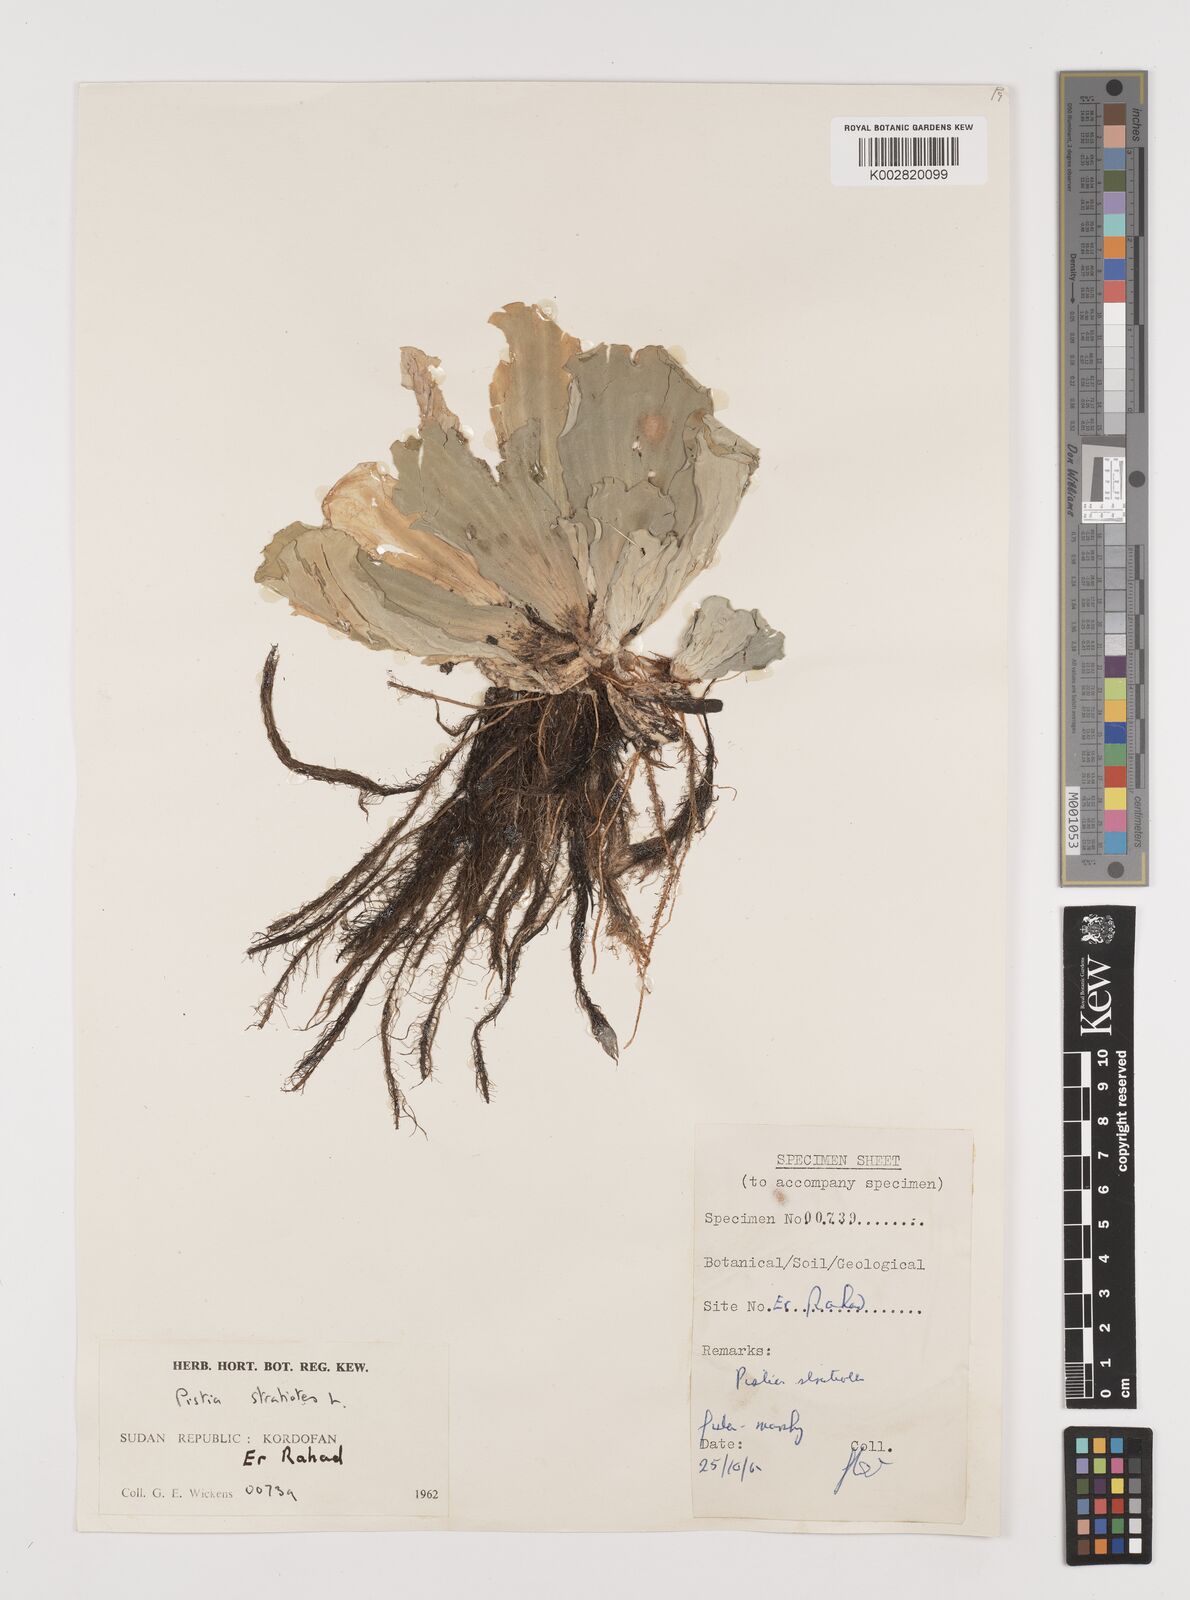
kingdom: Plantae
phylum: Tracheophyta
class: Liliopsida
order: Alismatales
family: Araceae
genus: Pistia
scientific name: Pistia stratiotes
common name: Water lettuce
